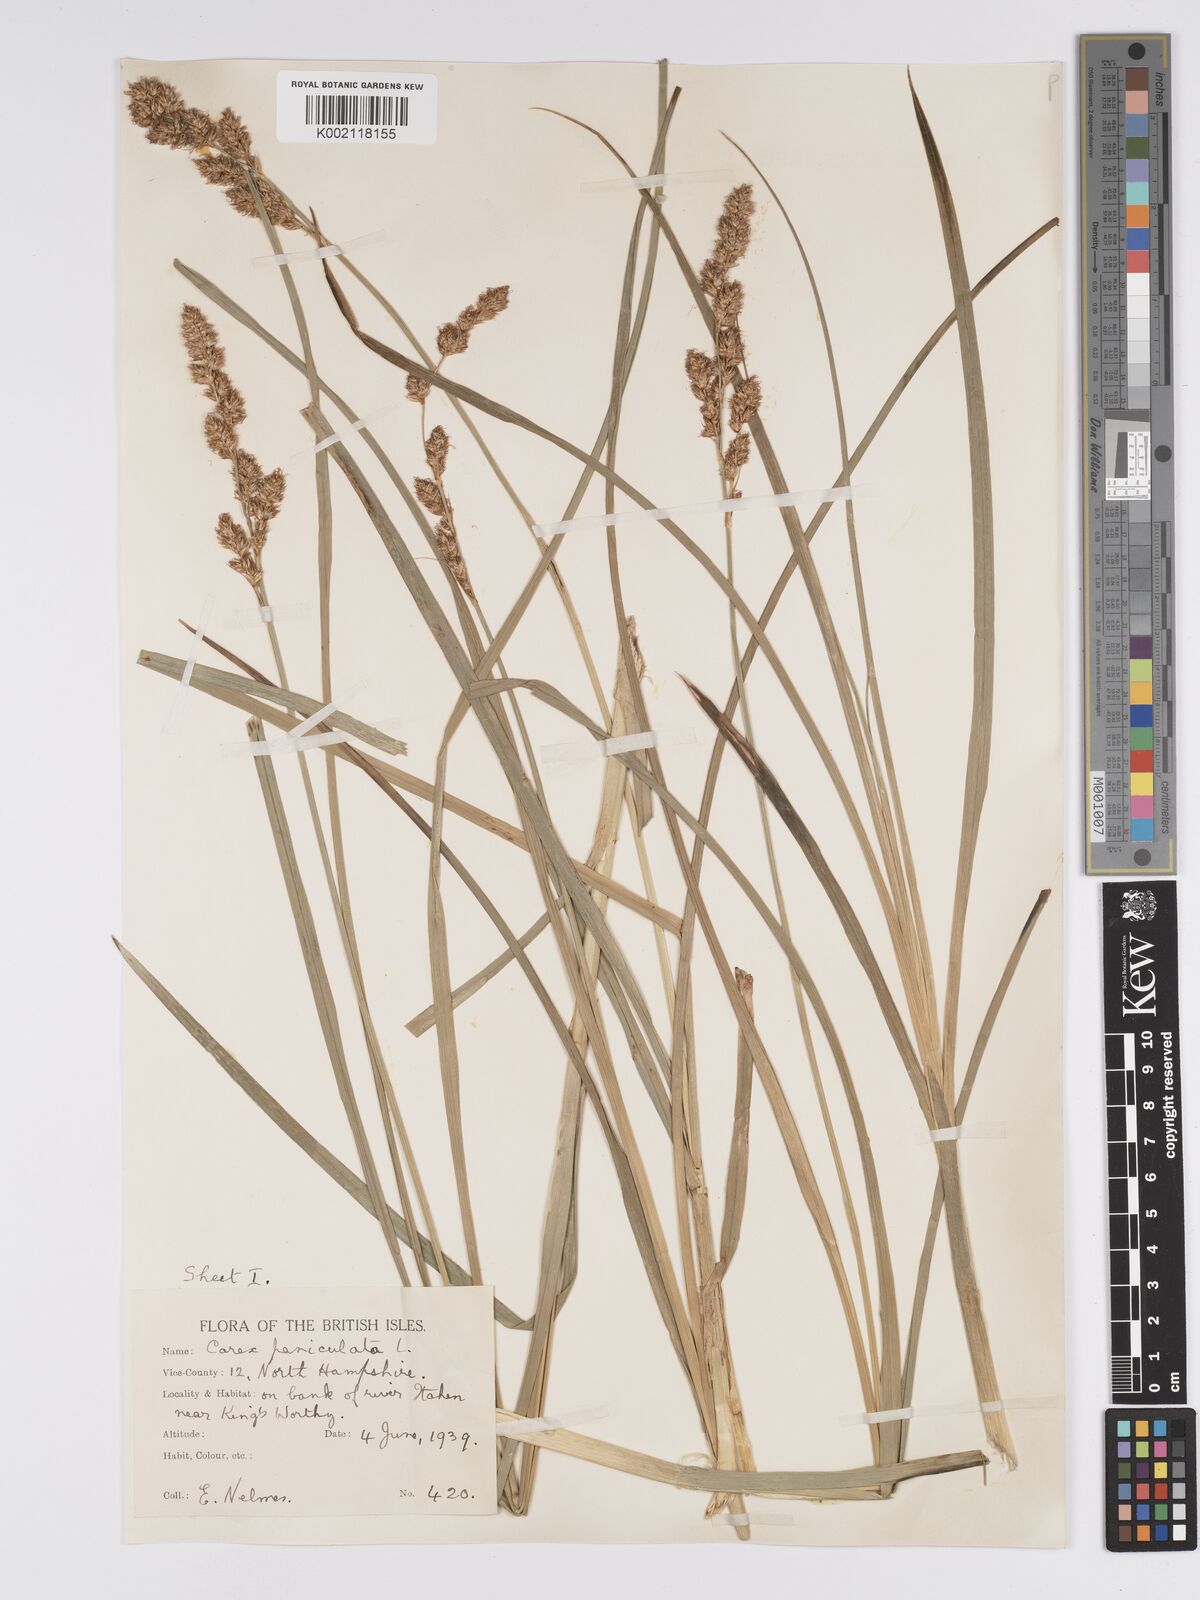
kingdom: Plantae
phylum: Tracheophyta
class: Liliopsida
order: Poales
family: Cyperaceae
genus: Carex
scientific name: Carex paniculata
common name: Greater tussock-sedge
